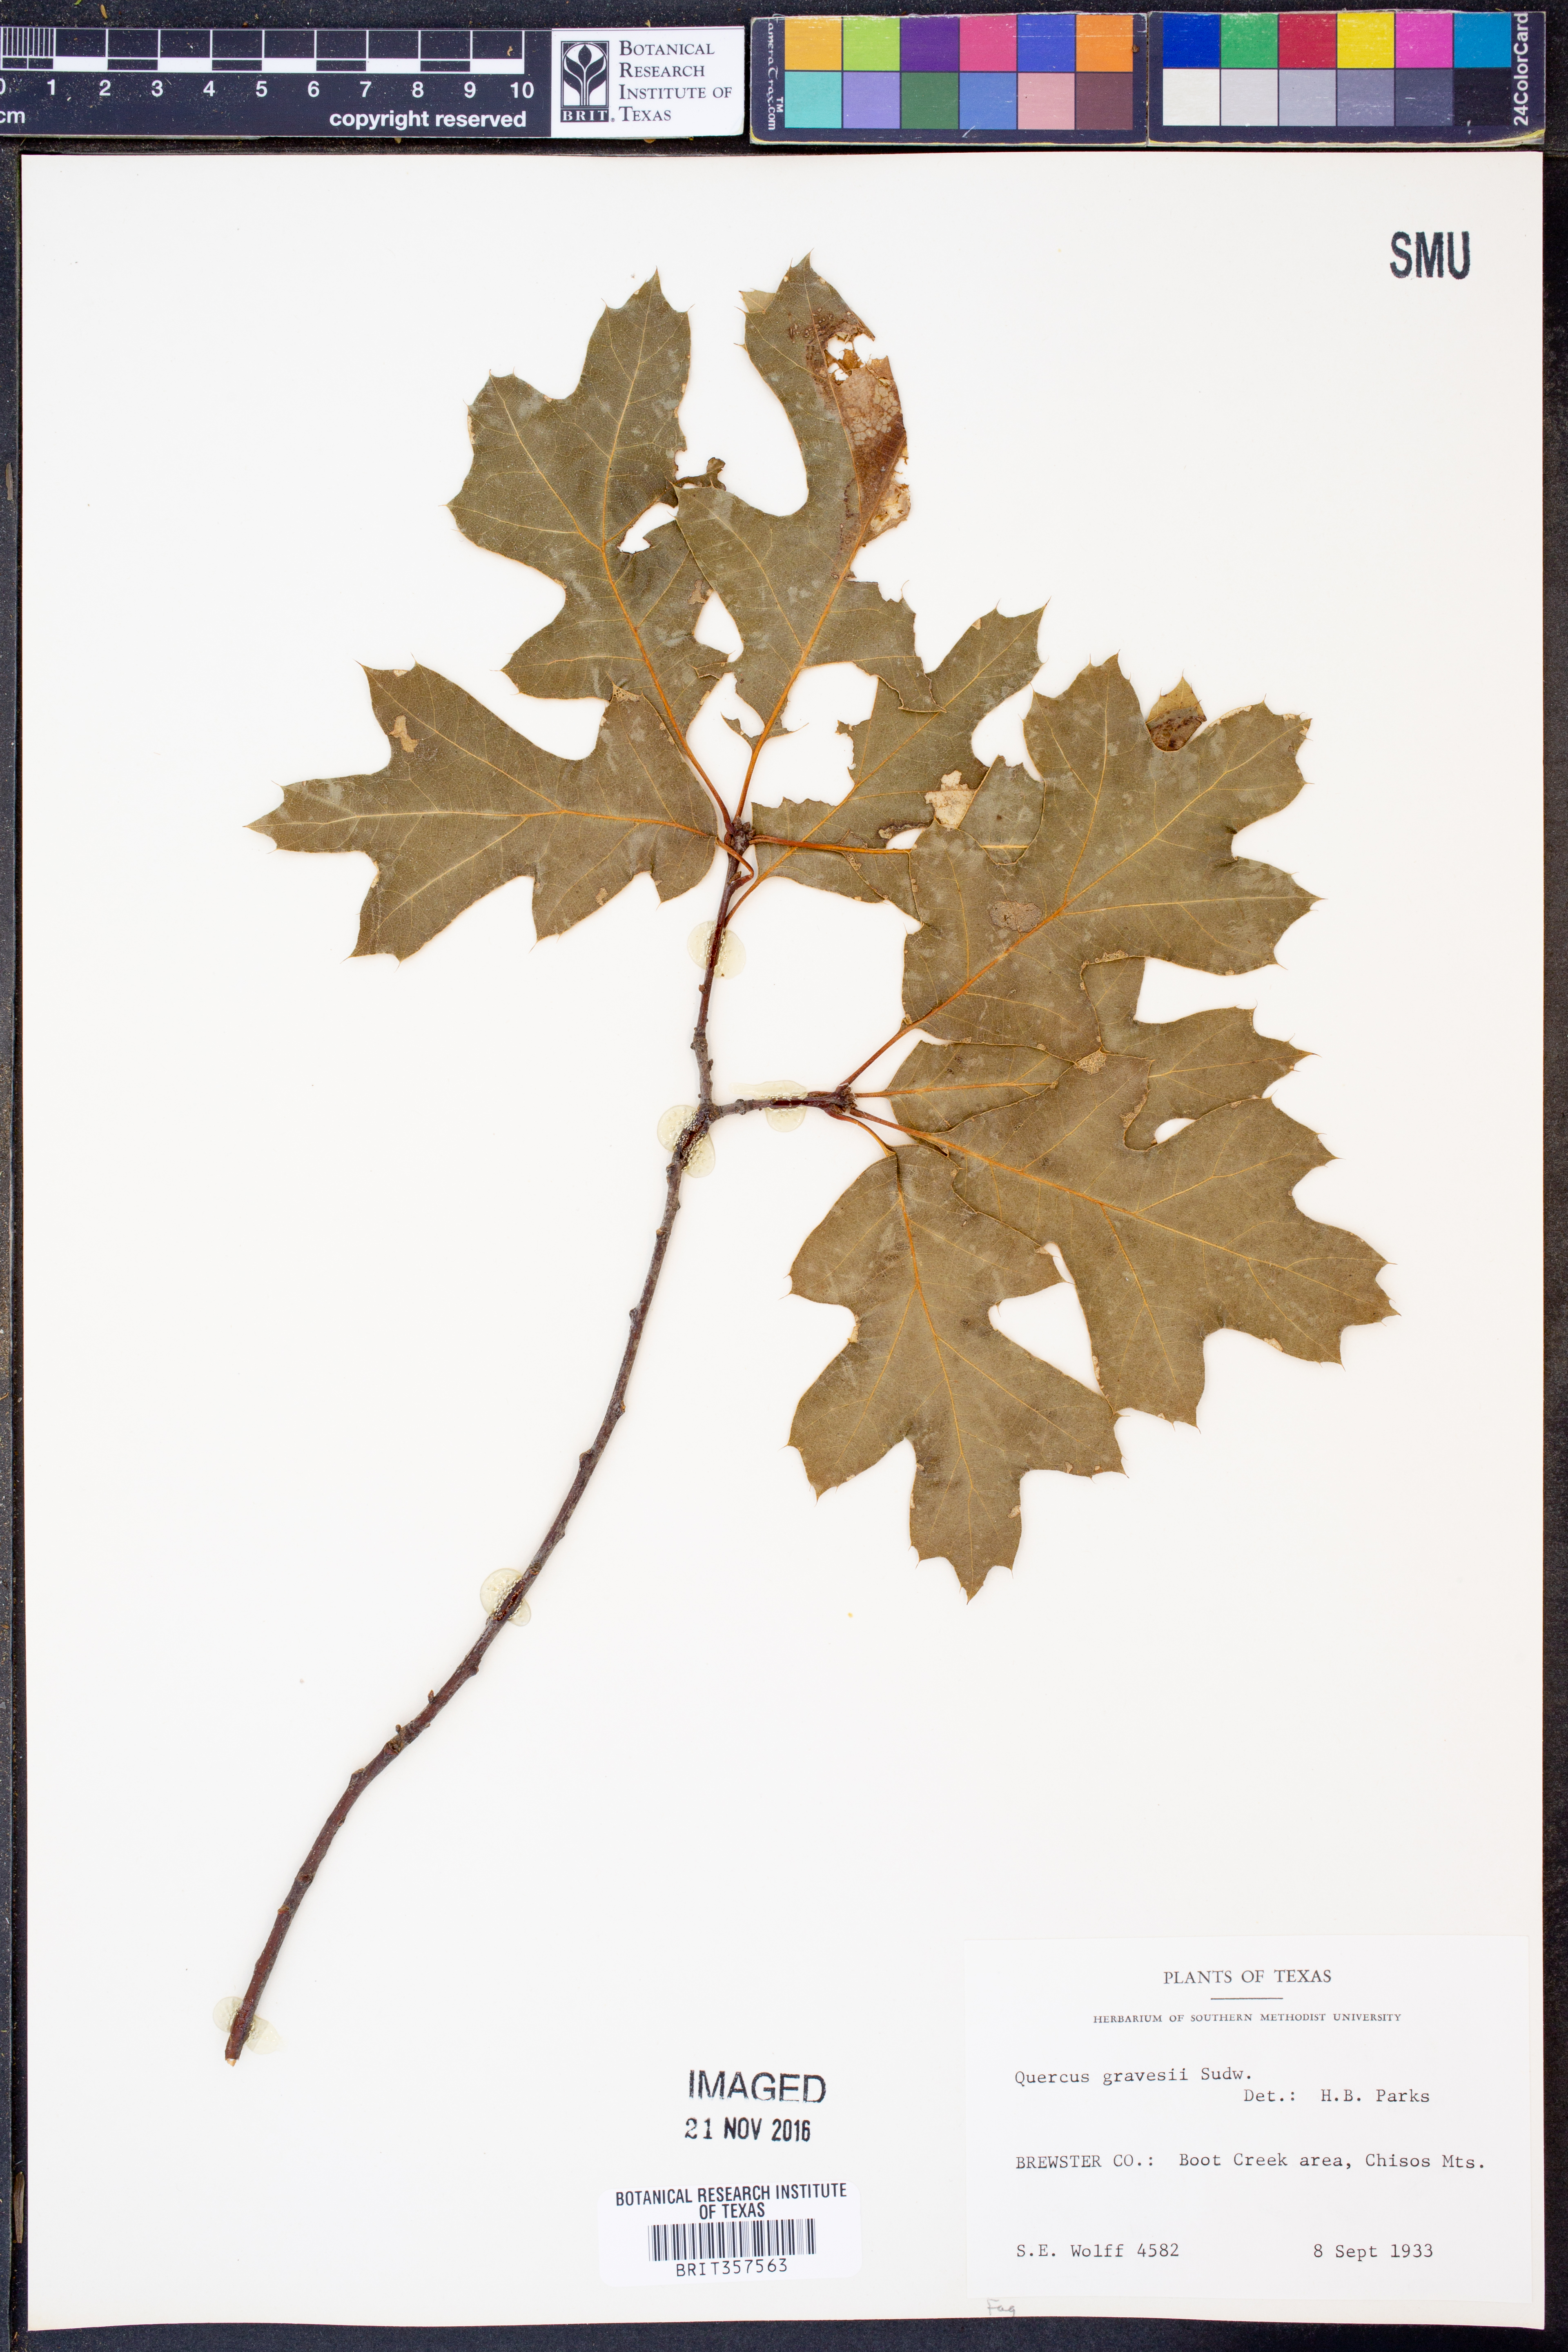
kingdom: Plantae
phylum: Tracheophyta
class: Magnoliopsida
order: Fagales
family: Fagaceae
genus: Quercus
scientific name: Quercus gravesii
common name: Chisos red oak
